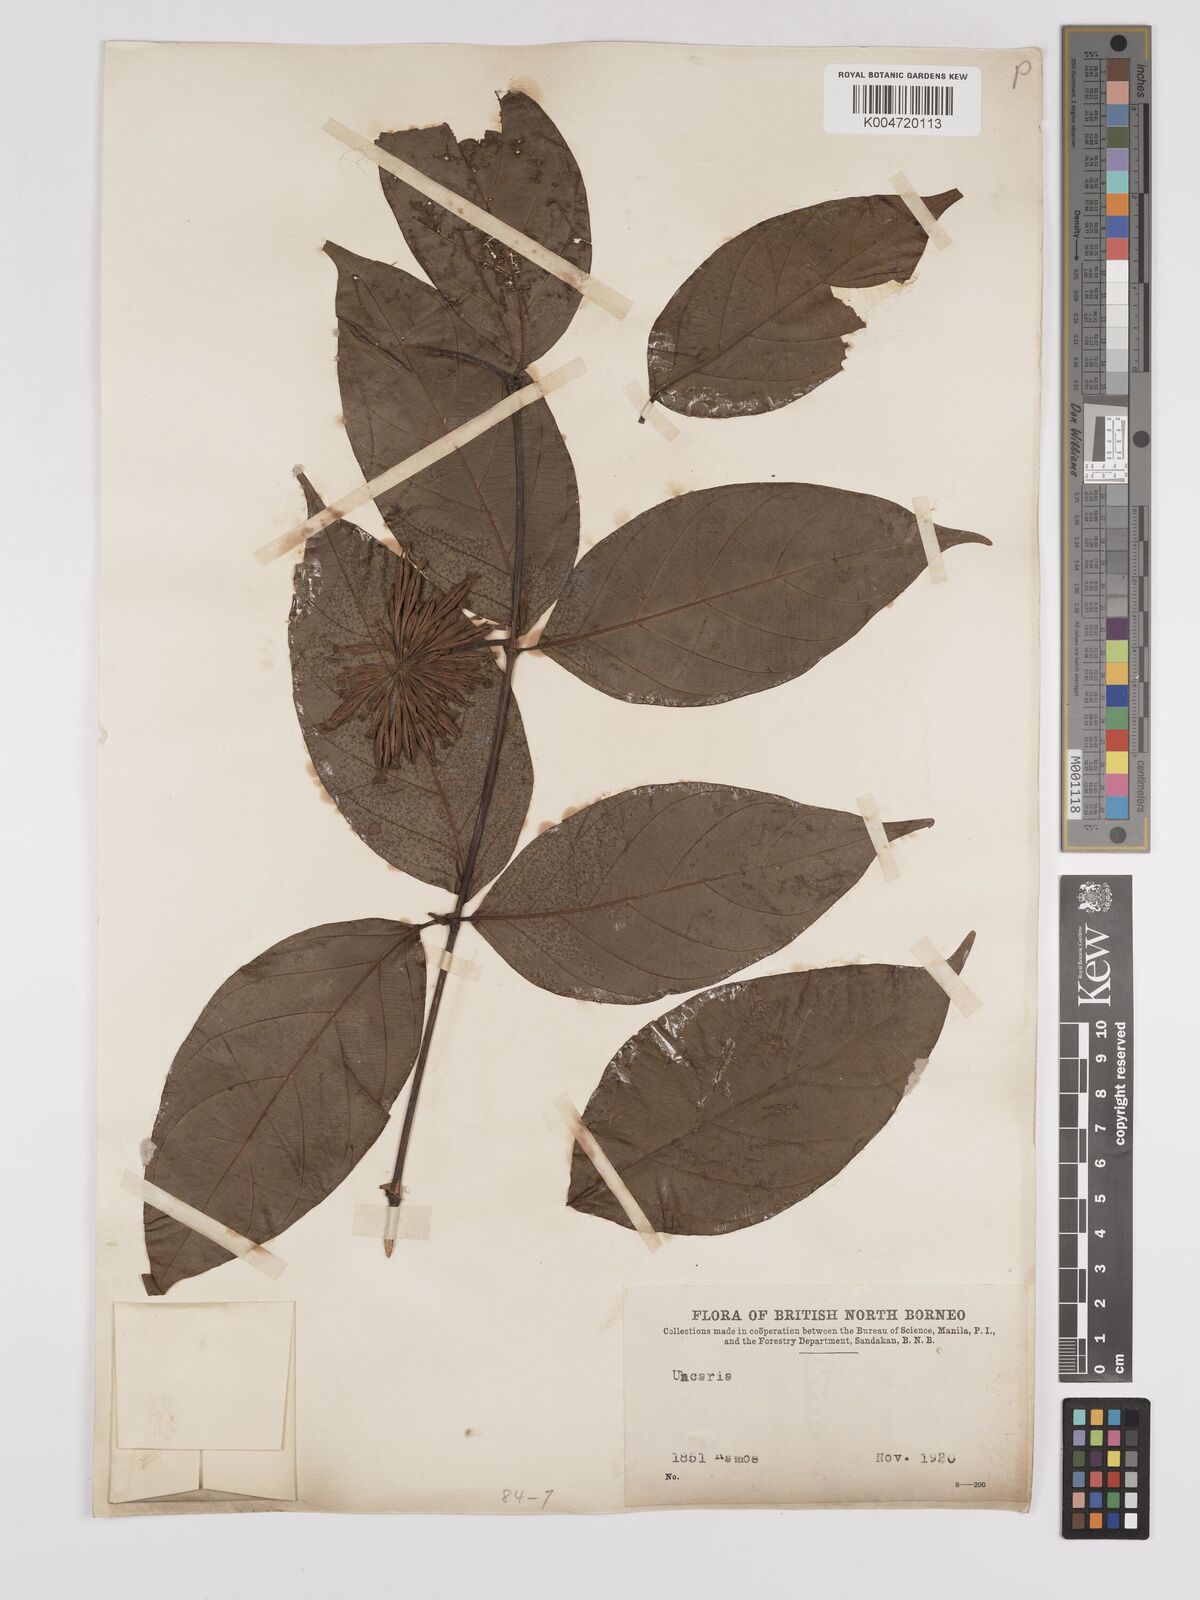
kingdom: Plantae
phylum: Tracheophyta
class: Magnoliopsida
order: Gentianales
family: Rubiaceae
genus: Uncaria
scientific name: Uncaria
